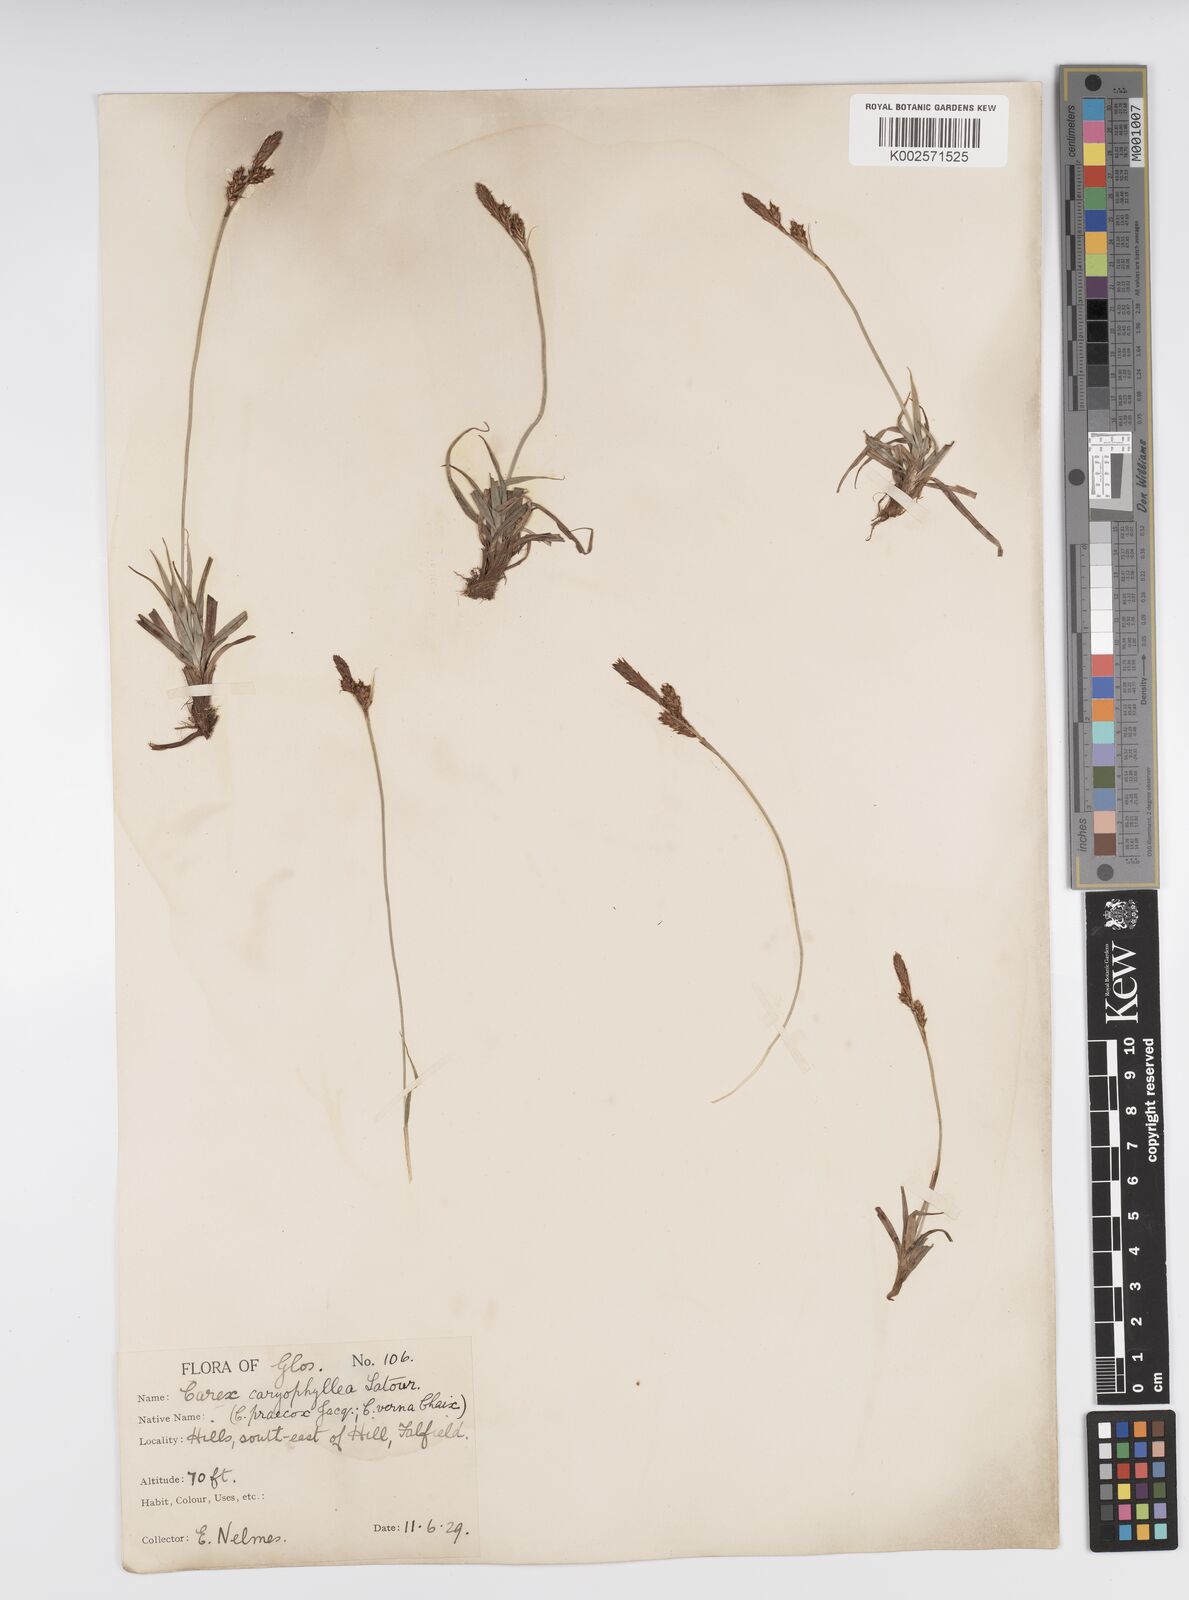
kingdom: Plantae
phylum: Tracheophyta
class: Liliopsida
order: Poales
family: Cyperaceae
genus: Carex
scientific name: Carex caryophyllea
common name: Spring sedge
